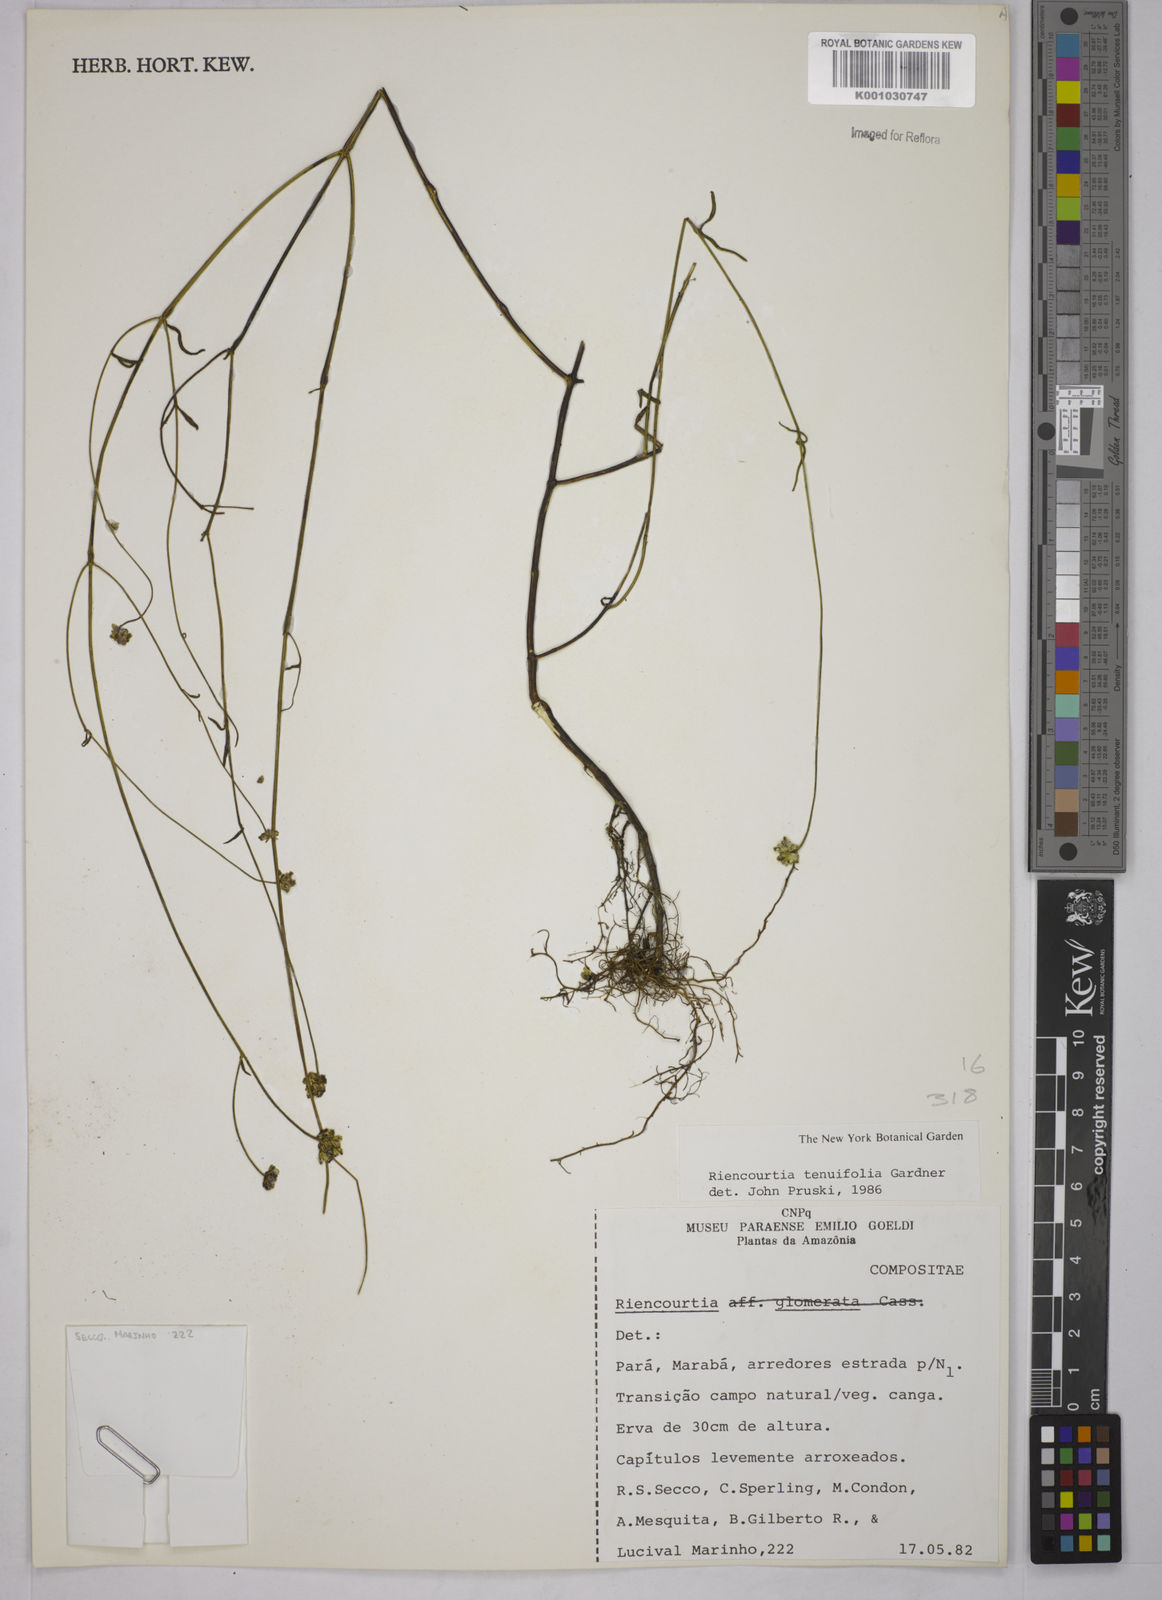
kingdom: Plantae
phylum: Tracheophyta
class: Magnoliopsida
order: Asterales
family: Asteraceae
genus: Riencourtia
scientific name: Riencourtia tenuifolia
